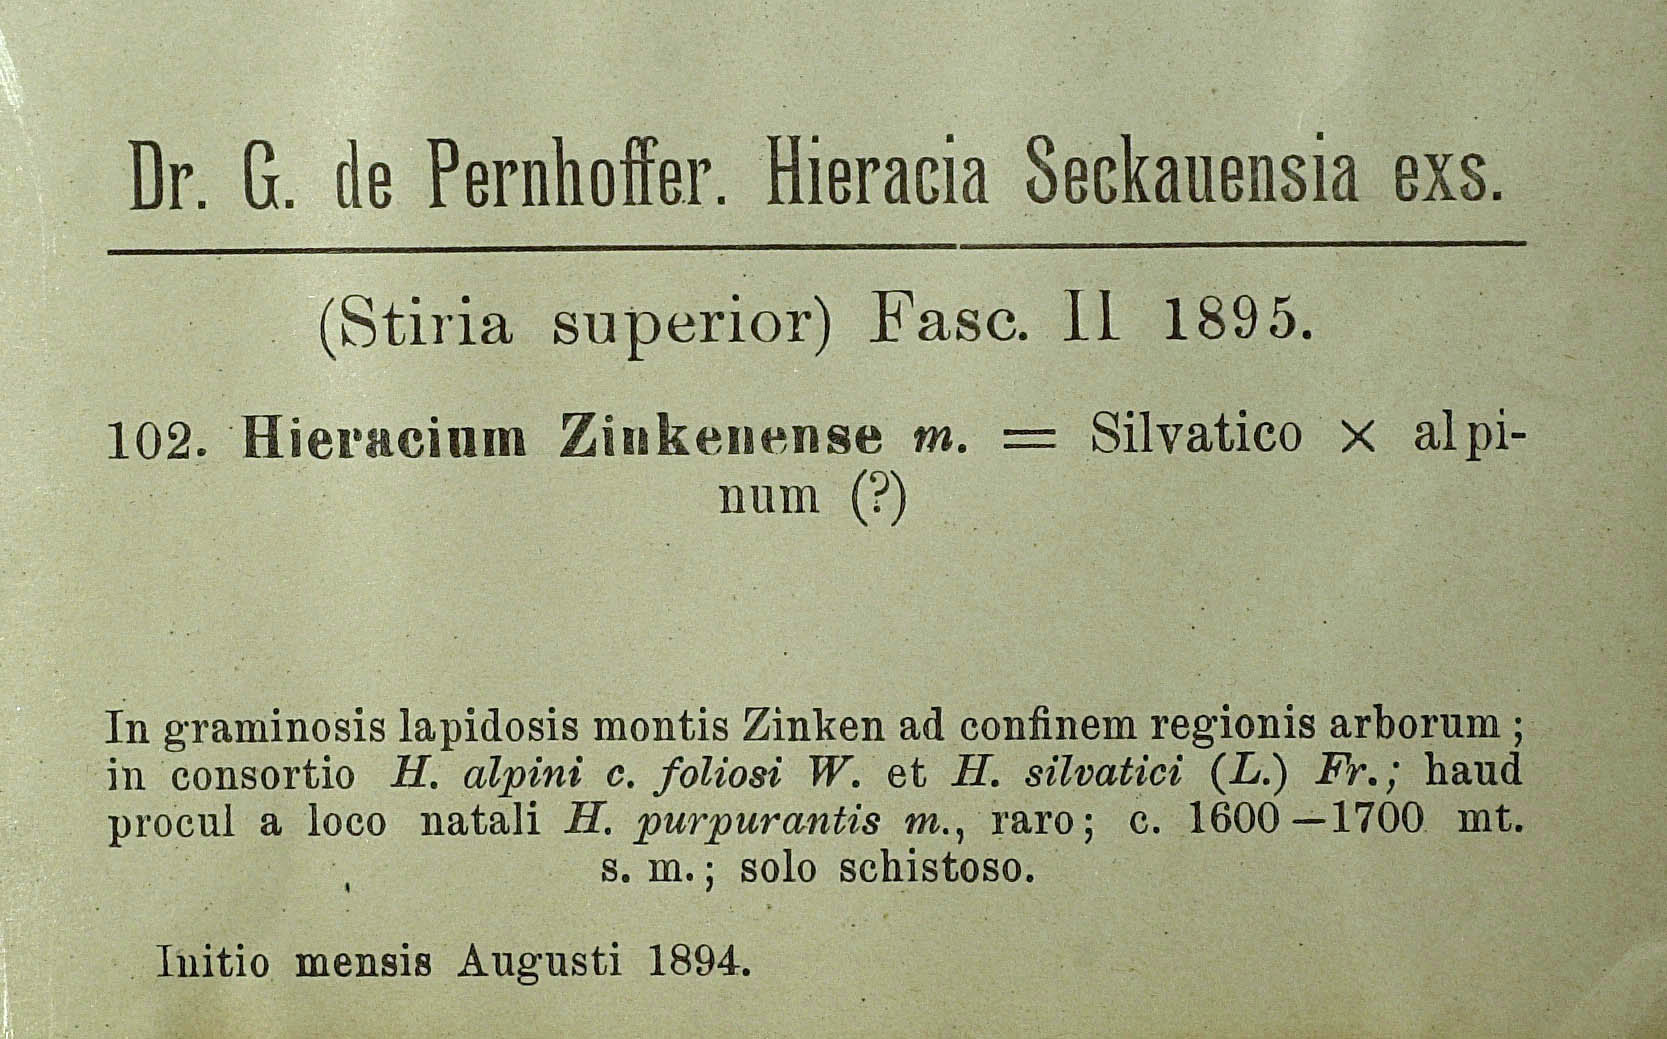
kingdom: Plantae
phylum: Tracheophyta
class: Magnoliopsida
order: Asterales
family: Asteraceae
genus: Hieracium
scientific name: Hieracium atratum
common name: Polar hawkweed
